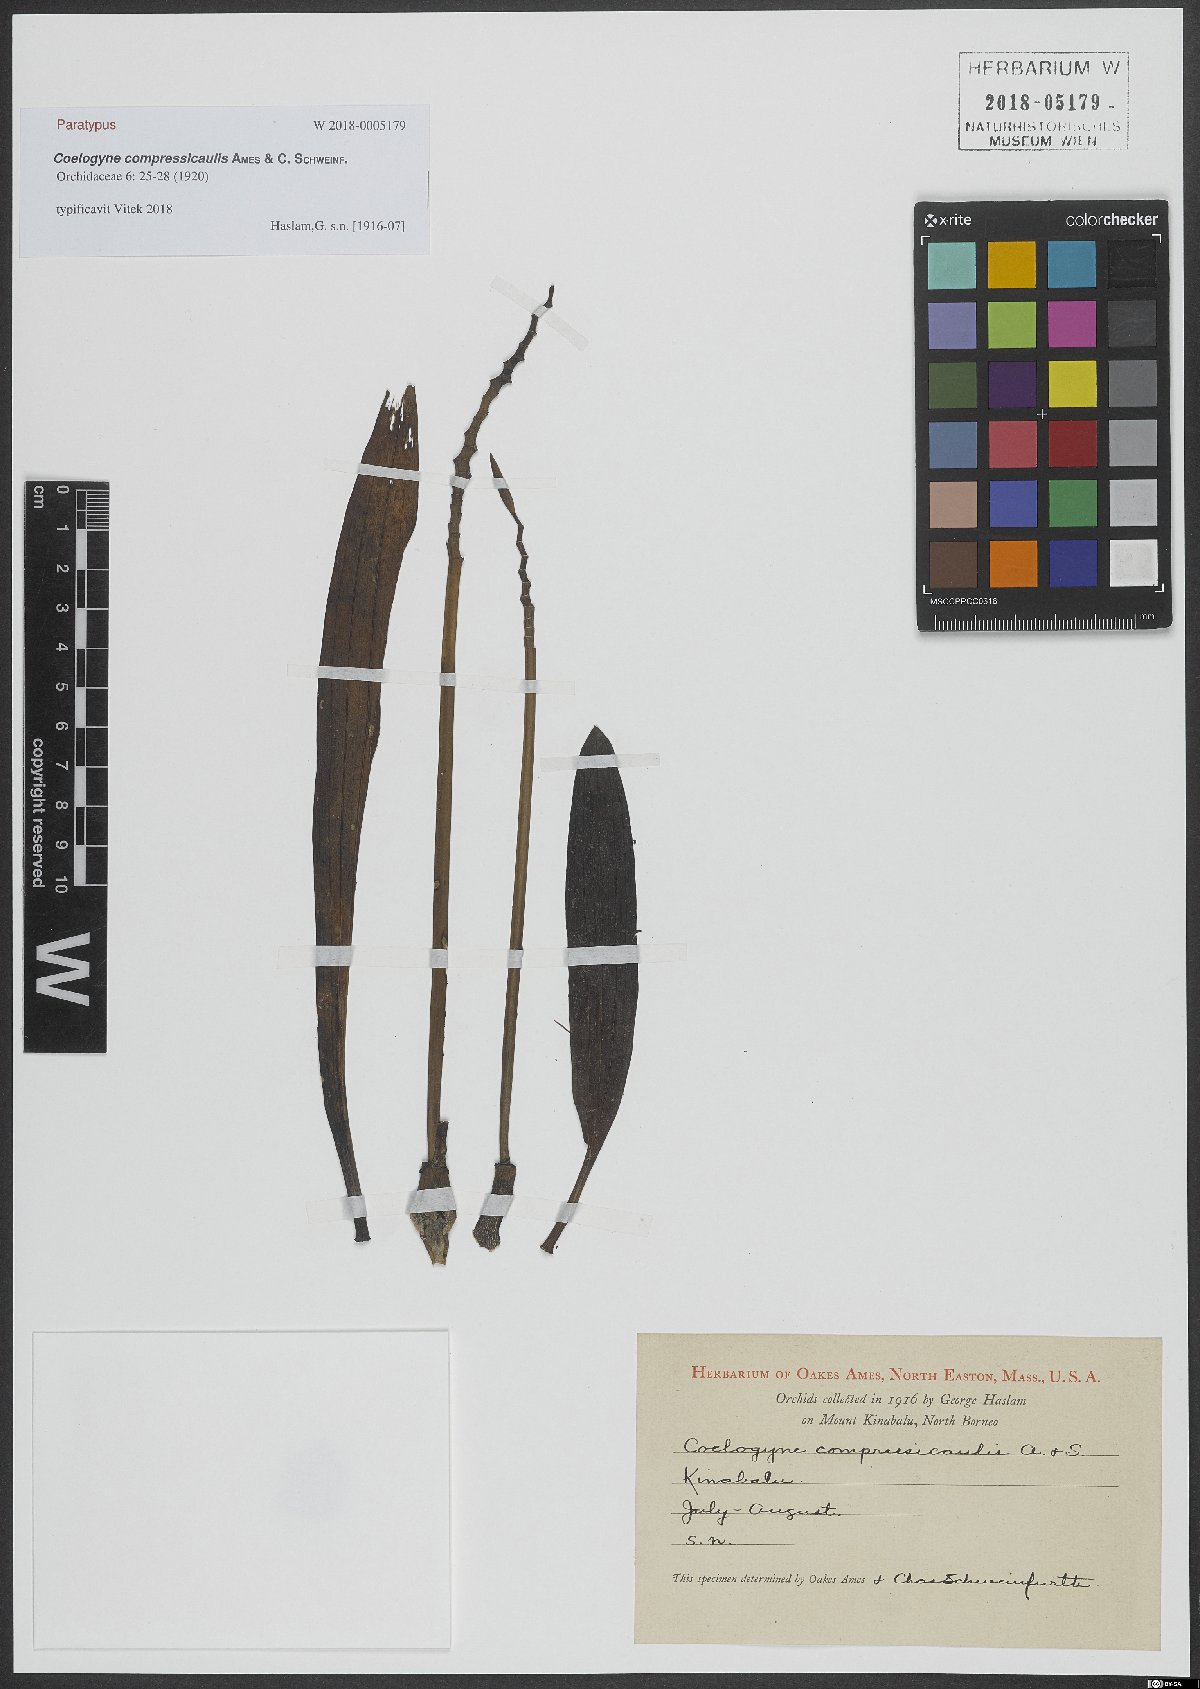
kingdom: Plantae
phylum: Tracheophyta
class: Liliopsida
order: Asparagales
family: Orchidaceae
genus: Coelogyne
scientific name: Coelogyne compressicaulis
